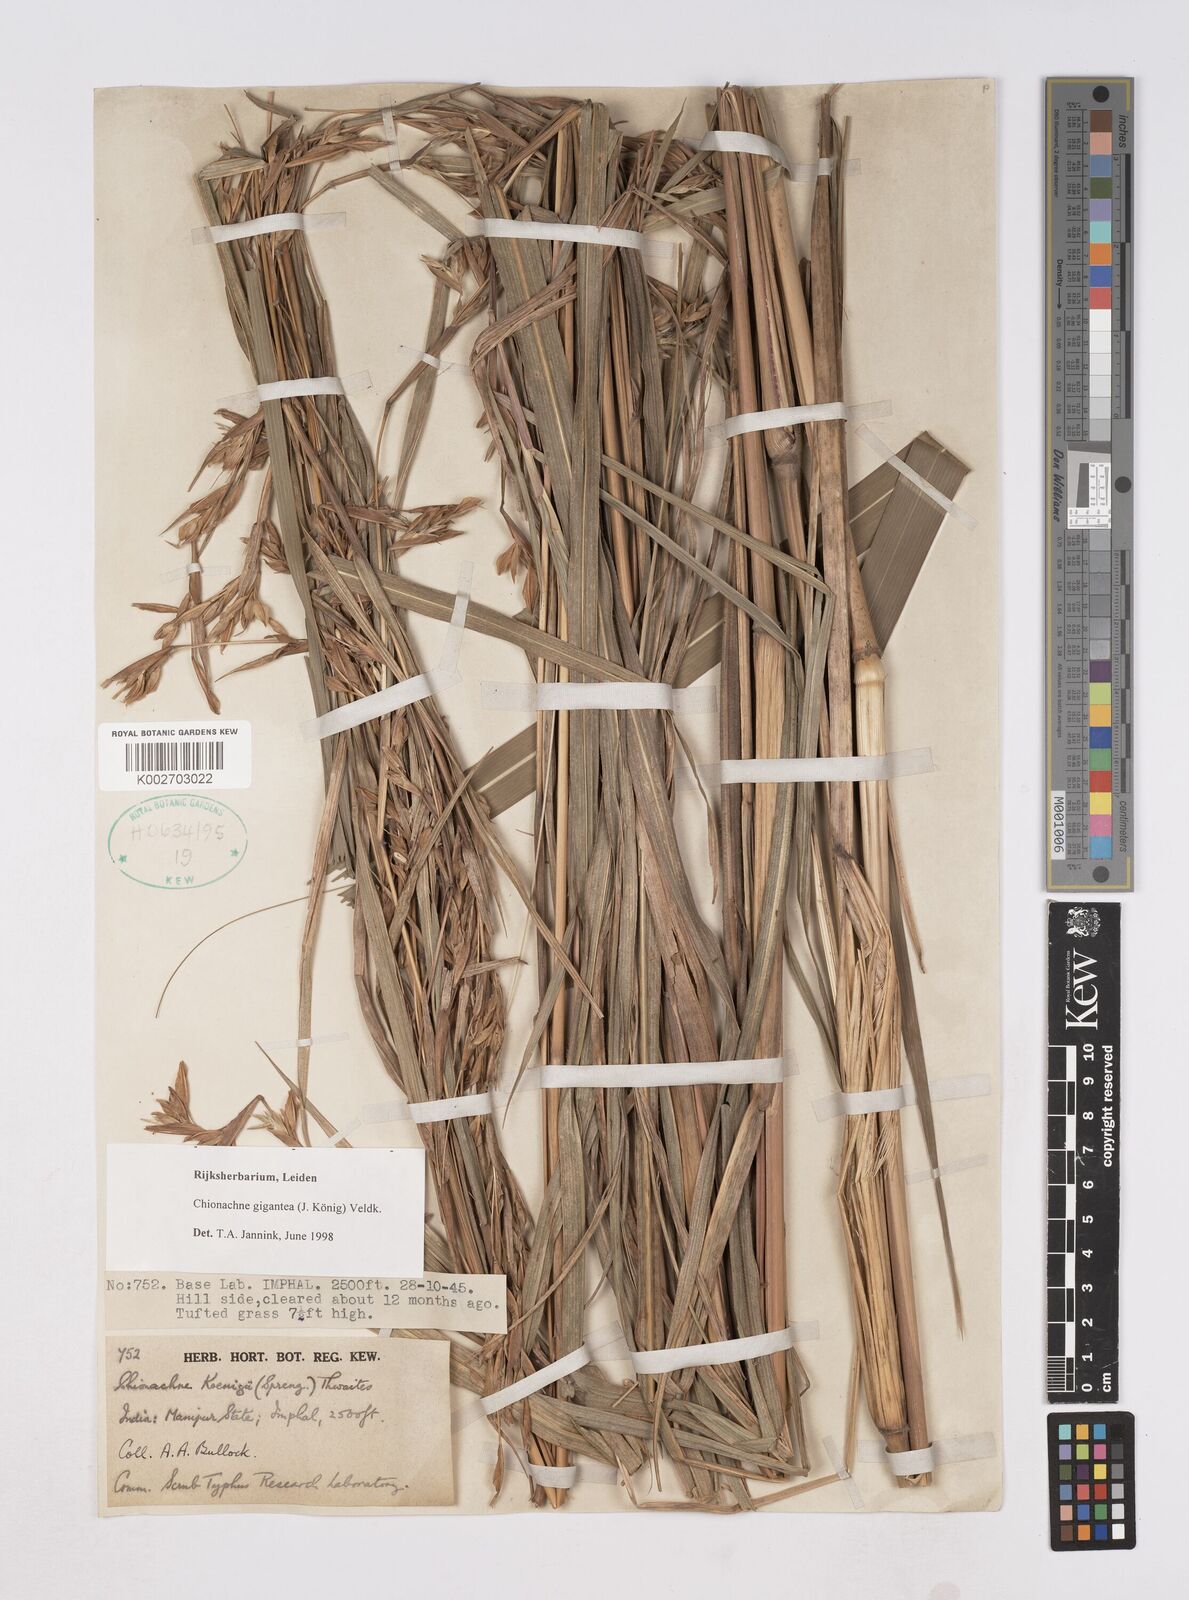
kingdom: Plantae
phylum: Tracheophyta
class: Liliopsida
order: Poales
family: Poaceae
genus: Polytoca
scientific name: Polytoca gigantea
